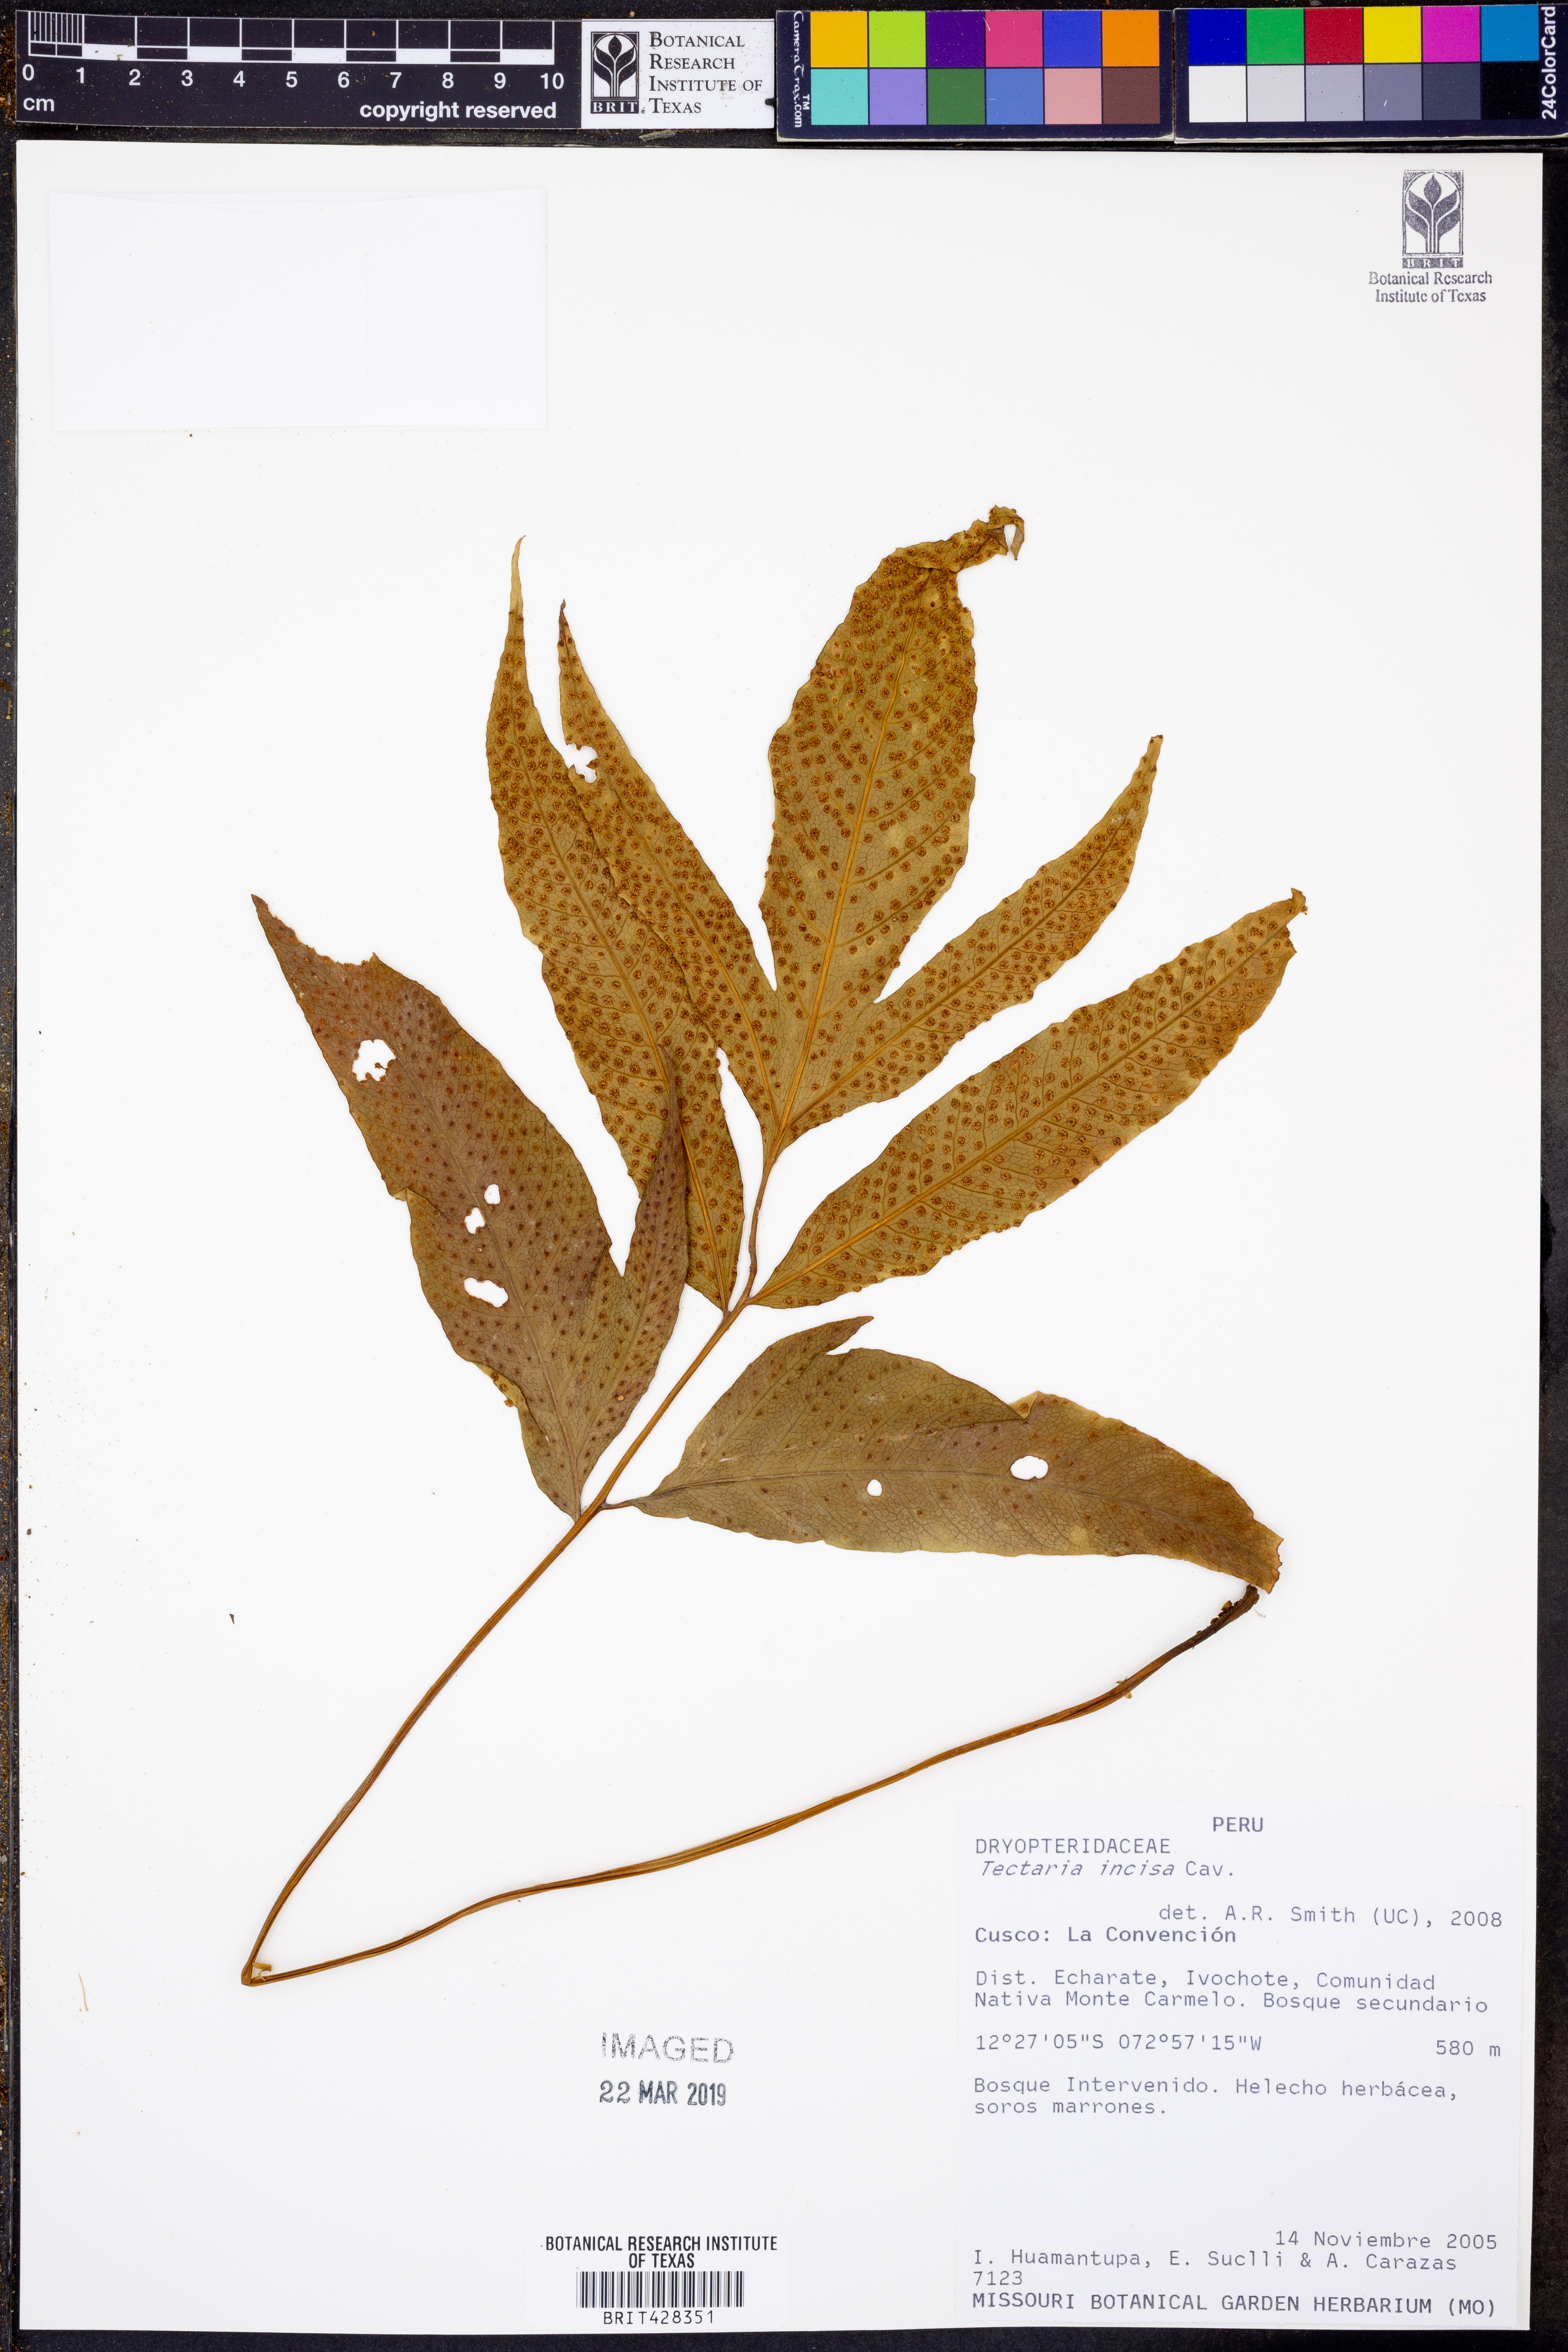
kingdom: Plantae
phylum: Tracheophyta
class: Polypodiopsida
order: Polypodiales
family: Tectariaceae
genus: Tectaria
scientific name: Tectaria incisa
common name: Incised halberd fern
